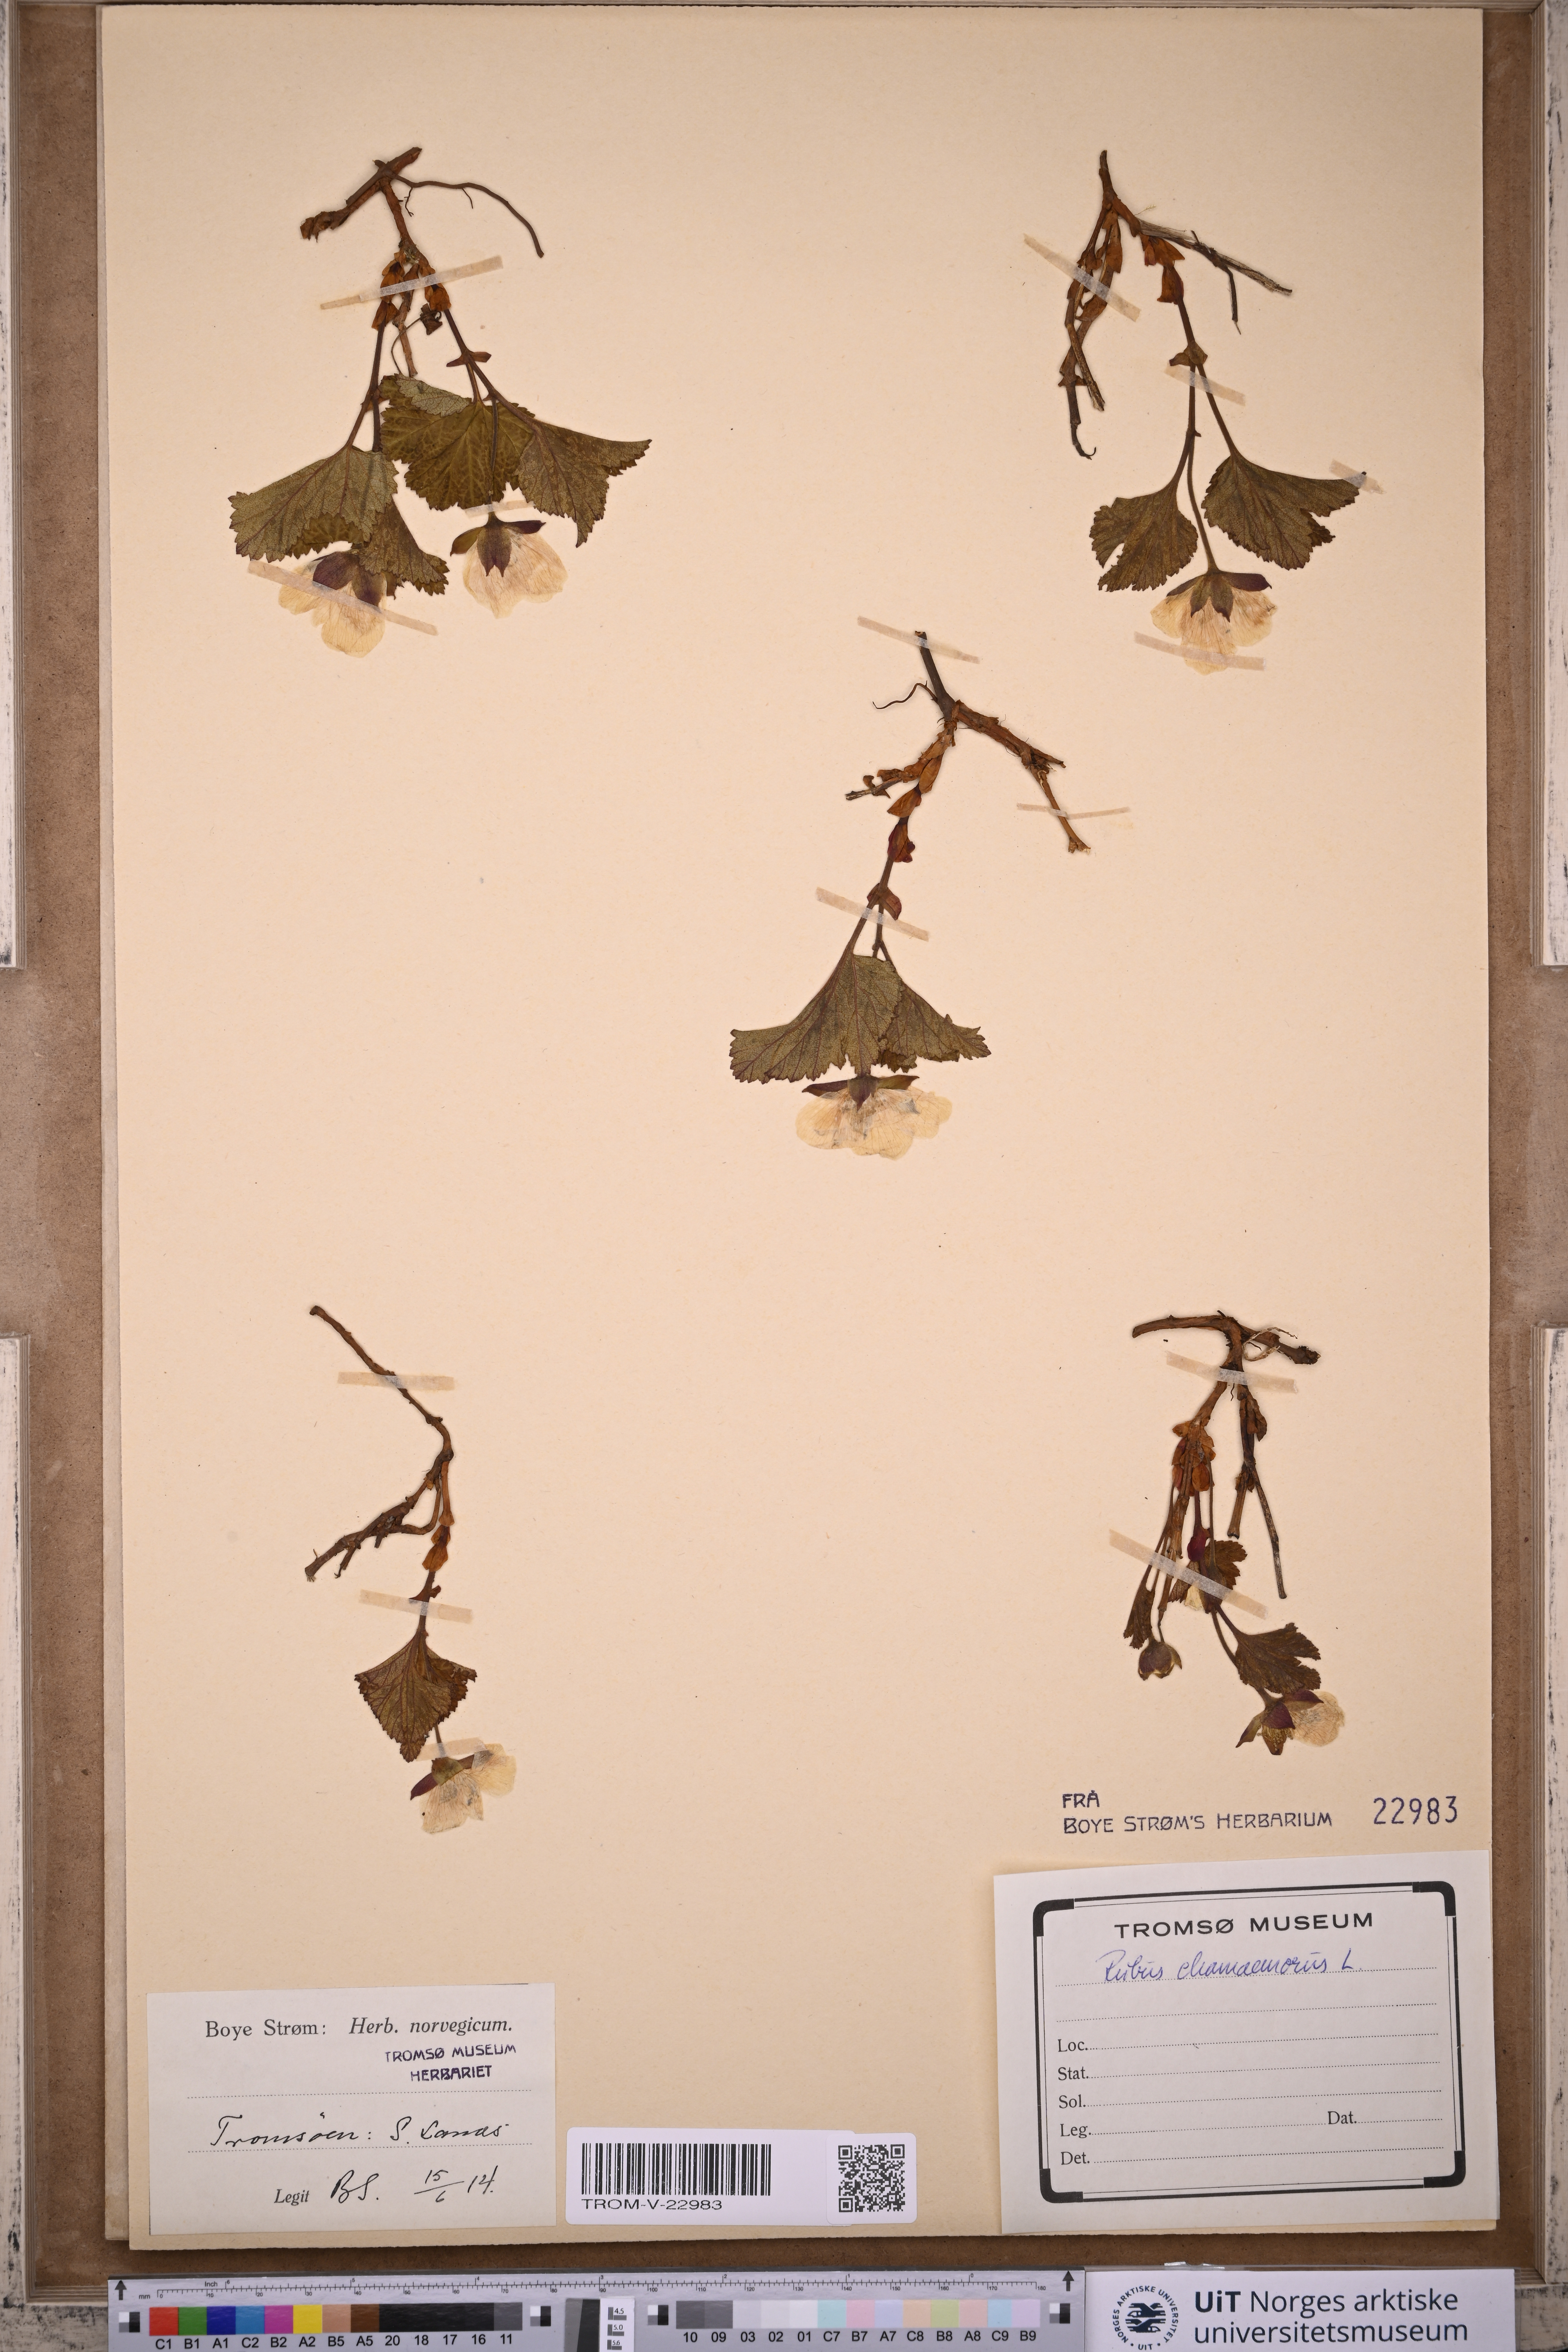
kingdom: Plantae
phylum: Tracheophyta
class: Magnoliopsida
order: Rosales
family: Rosaceae
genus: Rubus
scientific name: Rubus chamaemorus
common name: Cloudberry
